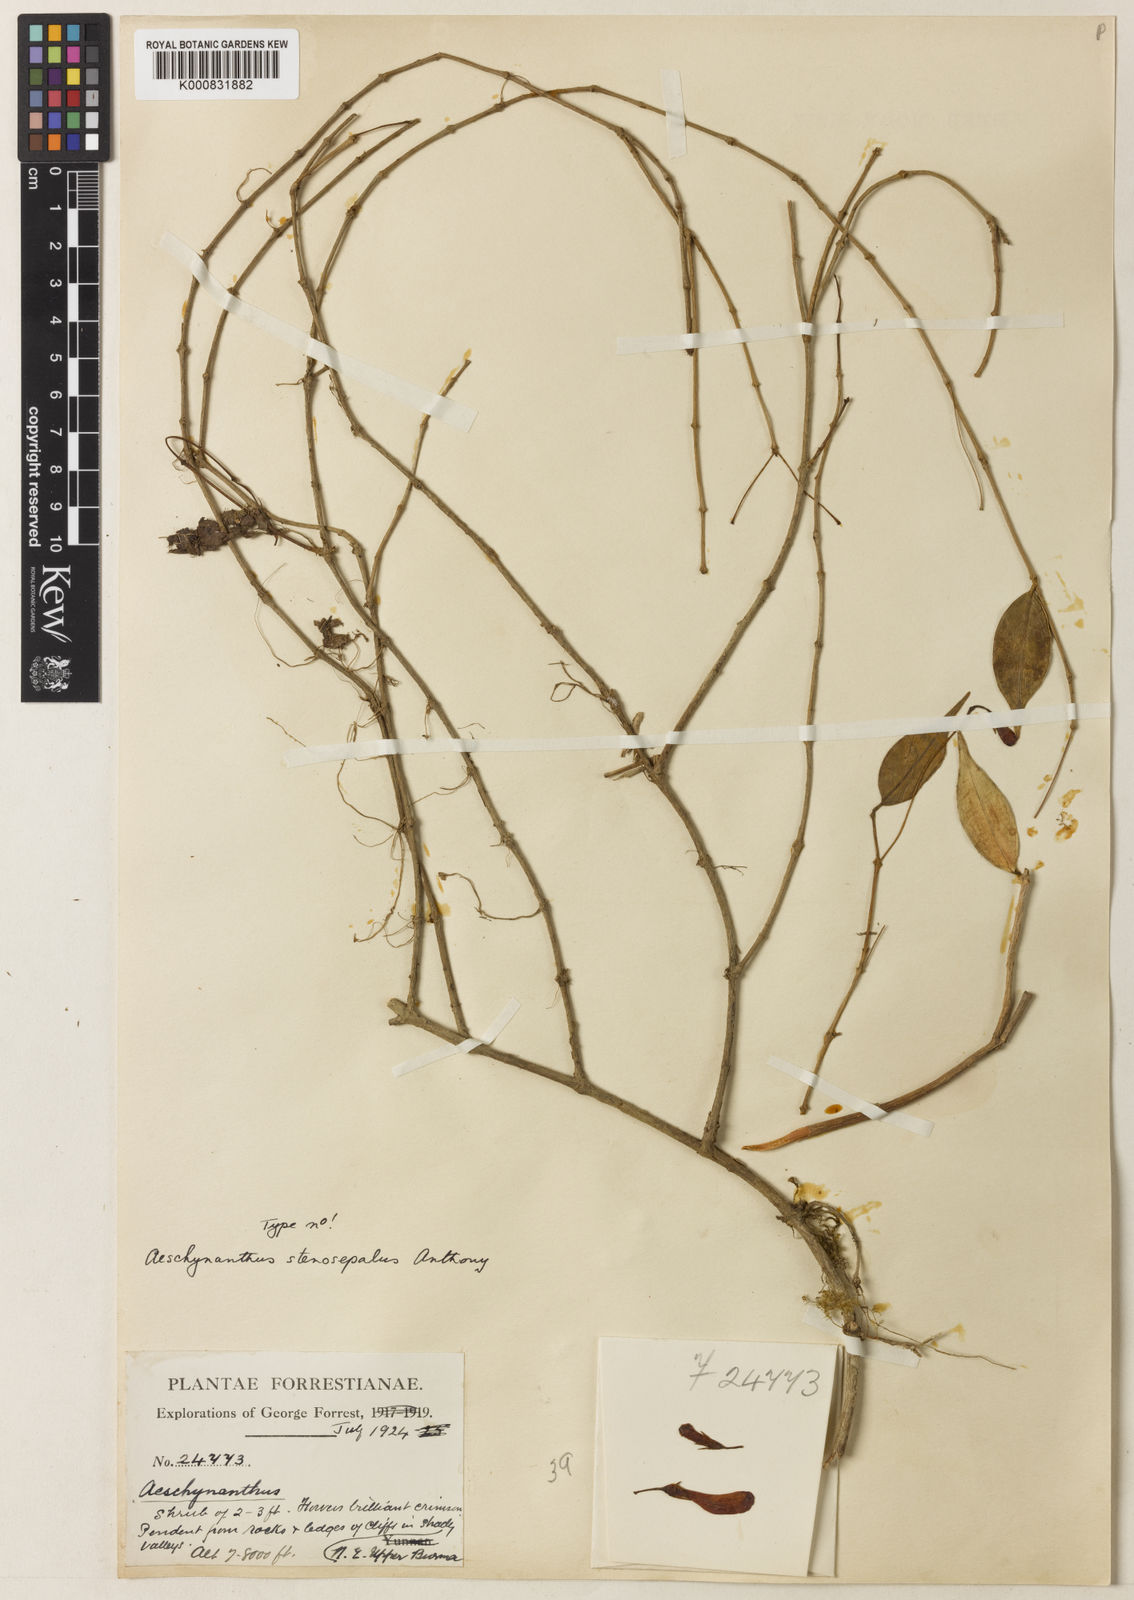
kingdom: Plantae
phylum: Tracheophyta
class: Magnoliopsida
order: Lamiales
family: Gesneriaceae
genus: Aeschynanthus
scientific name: Aeschynanthus stenosepalus
